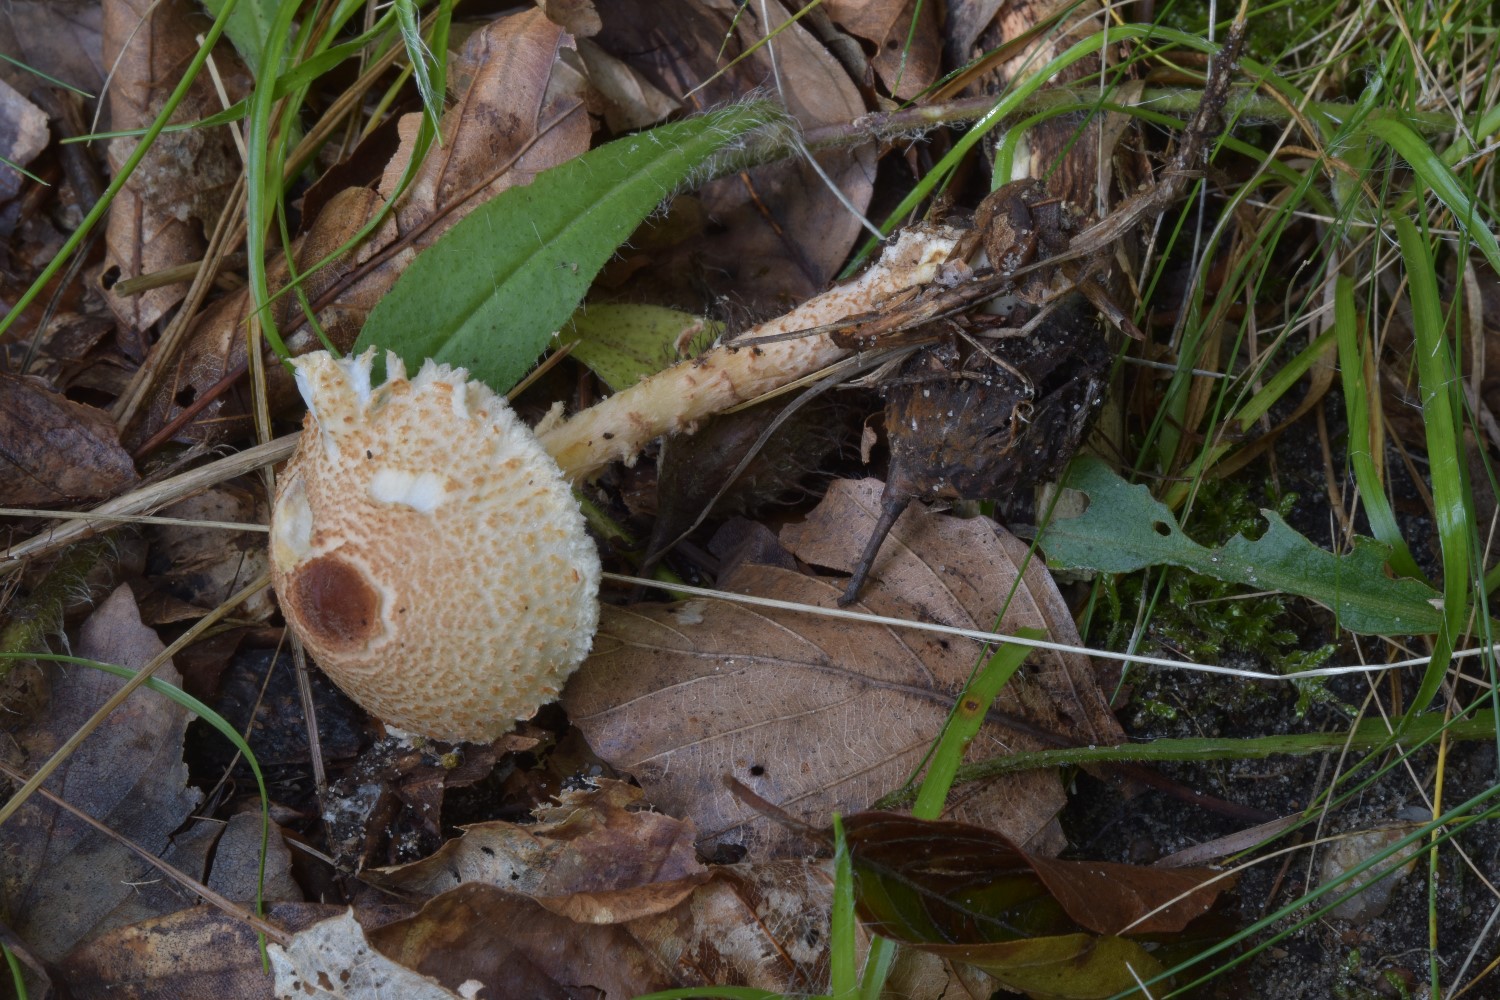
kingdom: Fungi
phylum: Basidiomycota
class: Agaricomycetes
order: Agaricales
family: Agaricaceae
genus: Lepiota
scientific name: Lepiota cristata
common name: stinkende parasolhat
